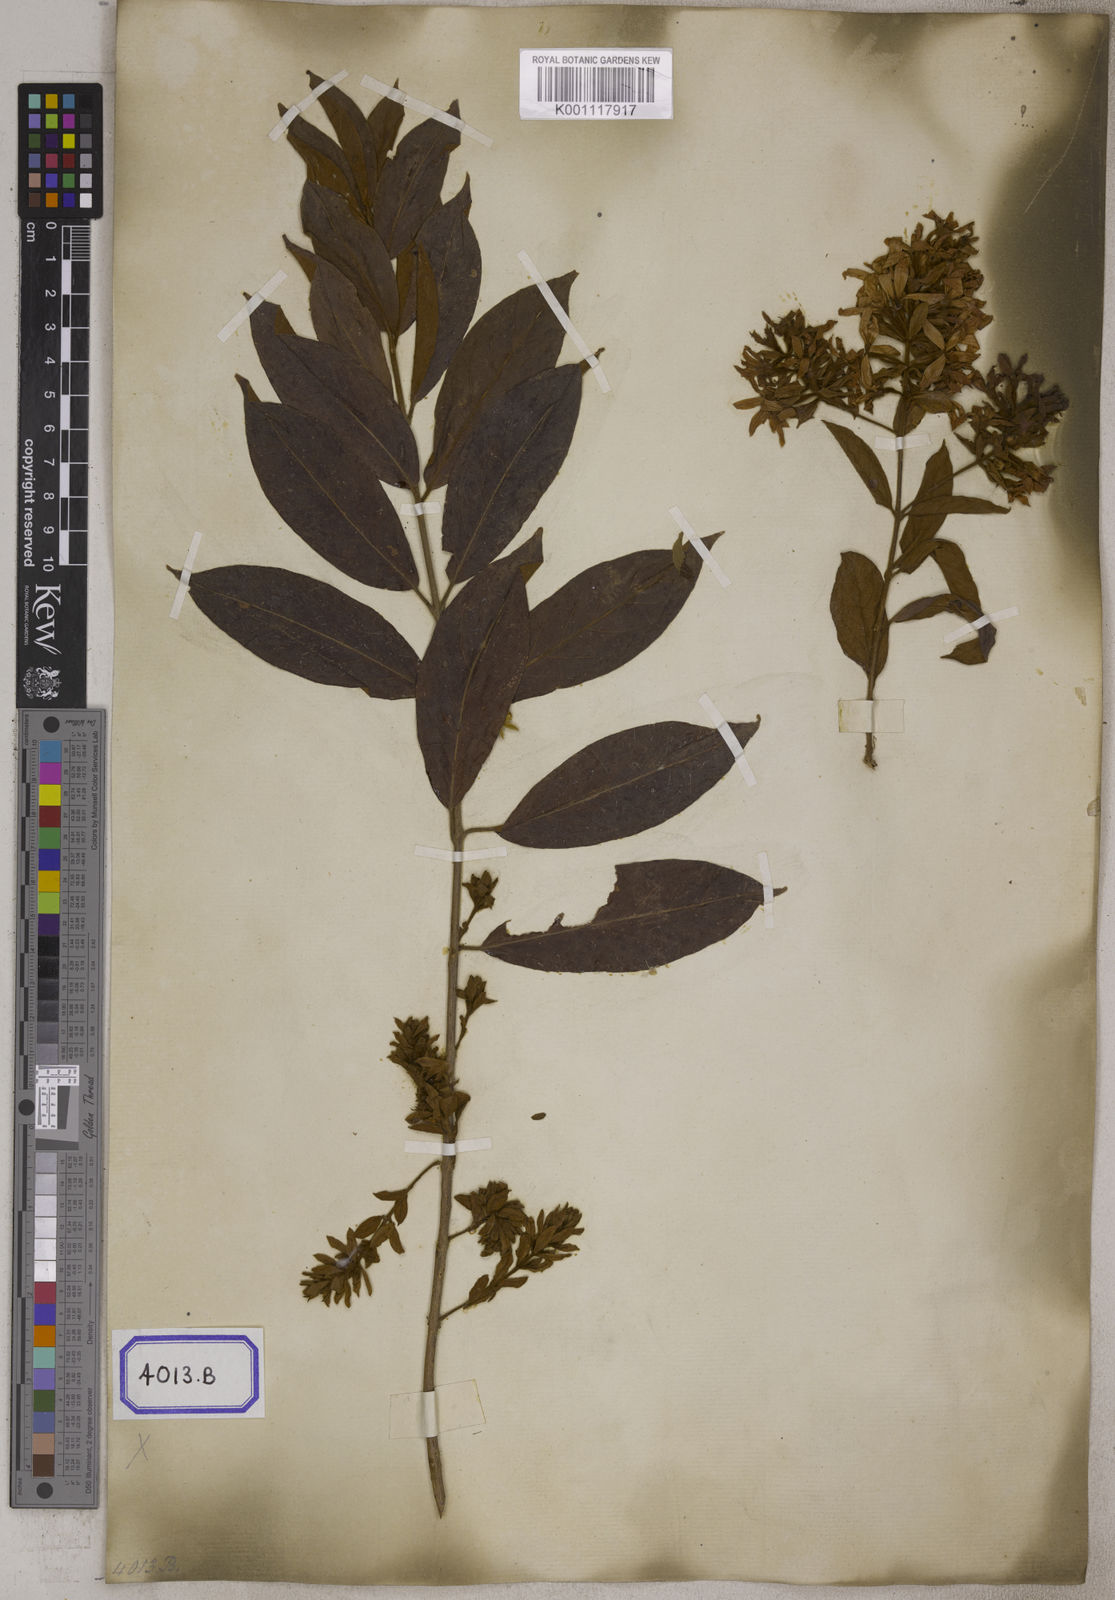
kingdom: Plantae
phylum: Tracheophyta
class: Magnoliopsida
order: Myrtales
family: Combretaceae
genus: Getonia
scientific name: Getonia floribunda
